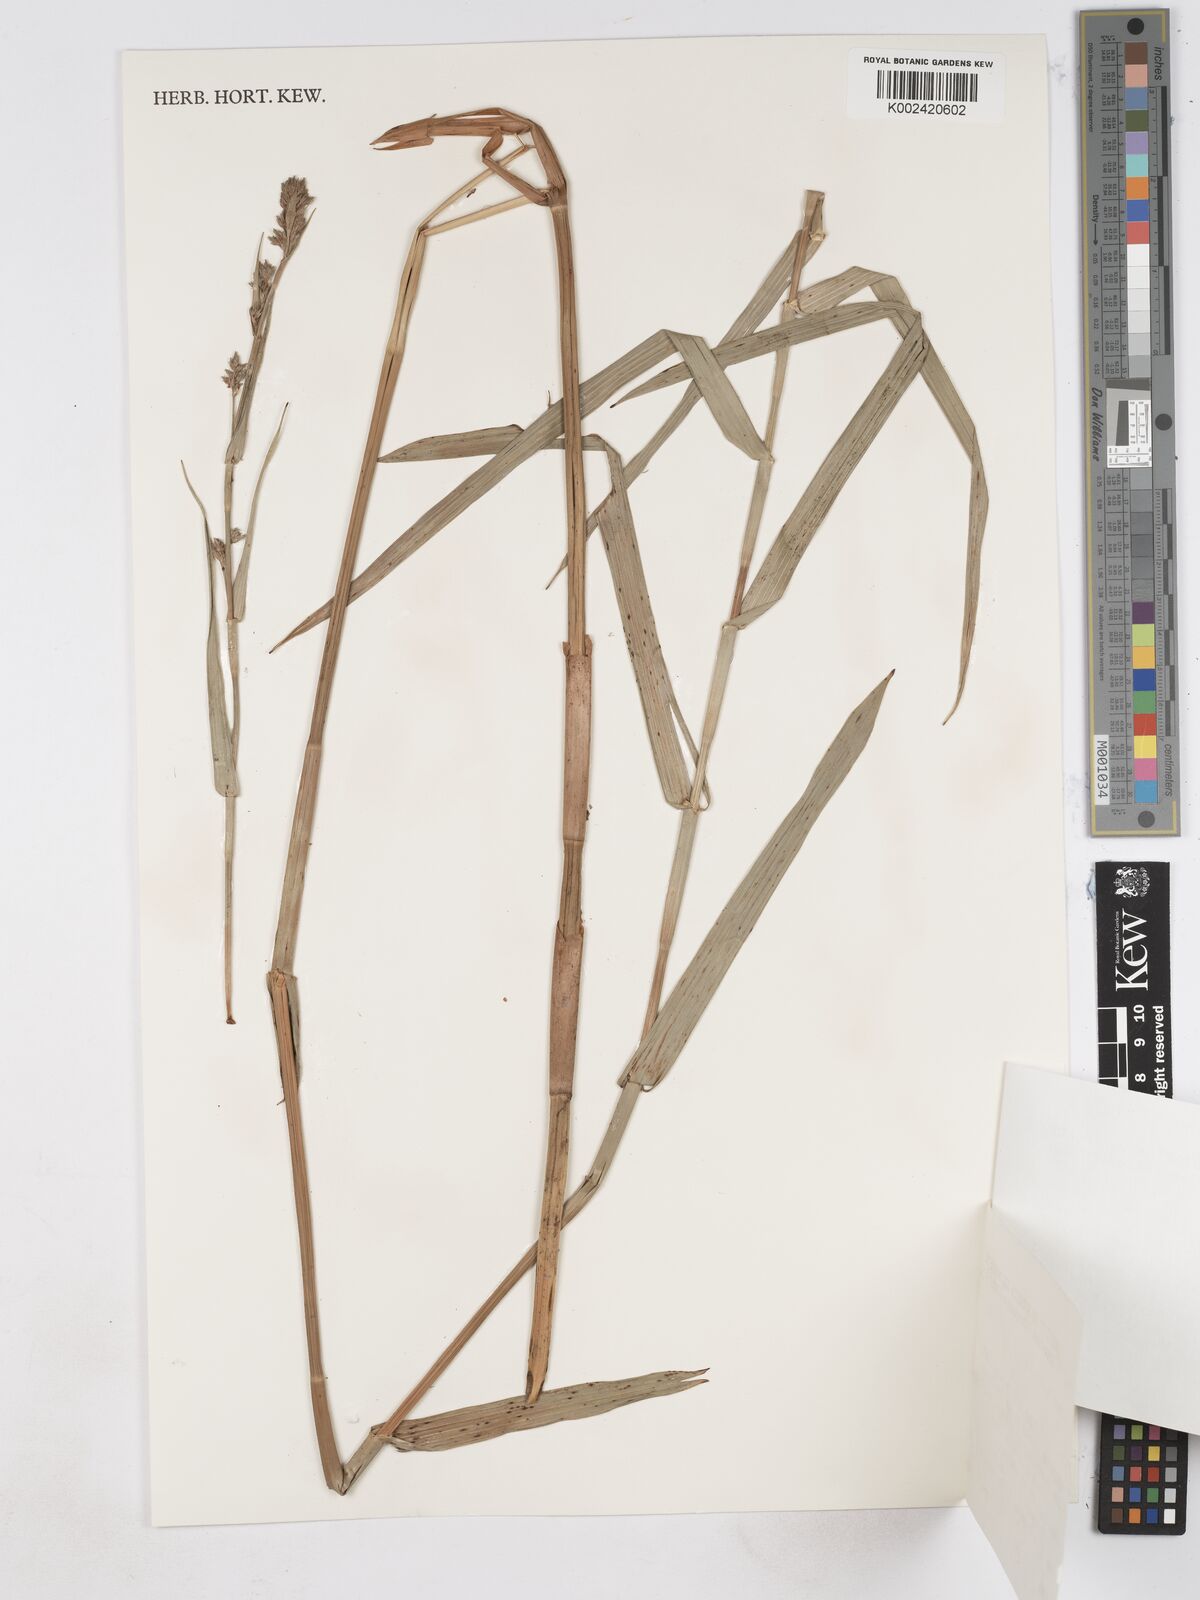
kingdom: Plantae
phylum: Tracheophyta
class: Liliopsida
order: Poales
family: Cyperaceae
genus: Fuirena
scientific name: Fuirena robusta
